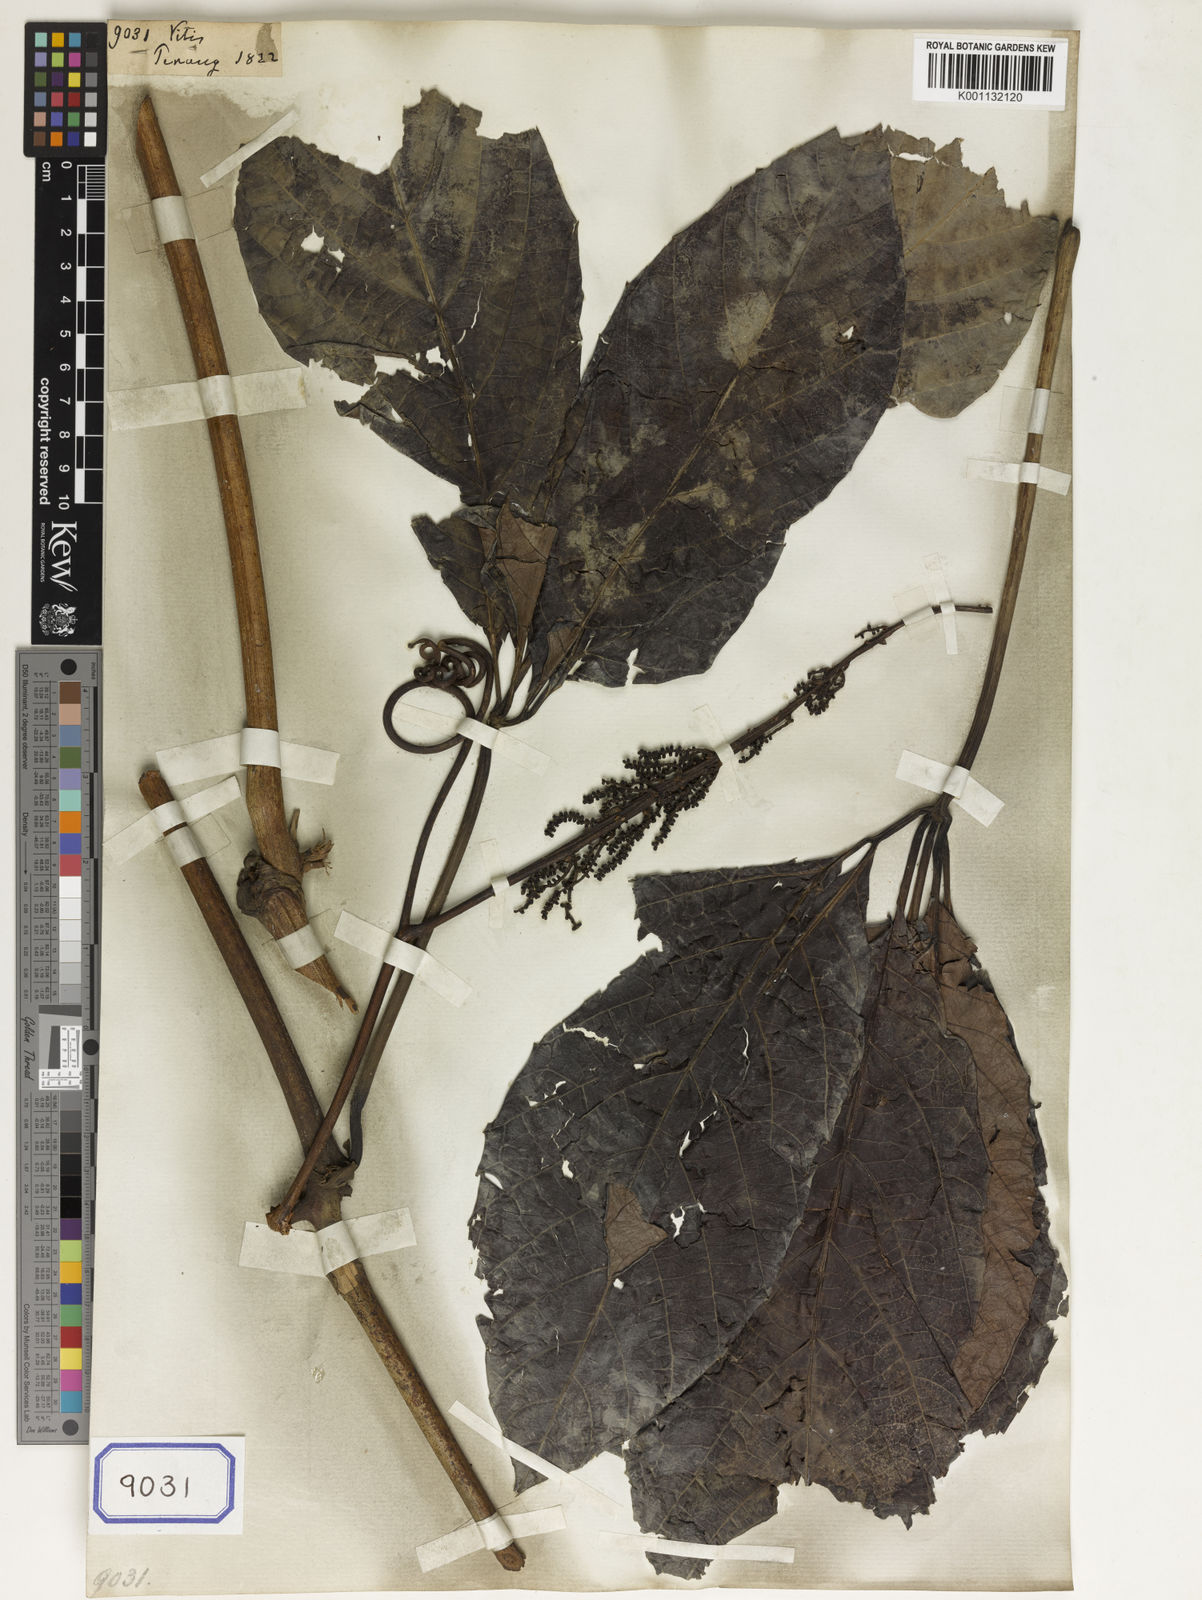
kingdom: Plantae
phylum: Tracheophyta
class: Magnoliopsida
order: Vitales
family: Vitaceae
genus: Vitis
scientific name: Vitis
